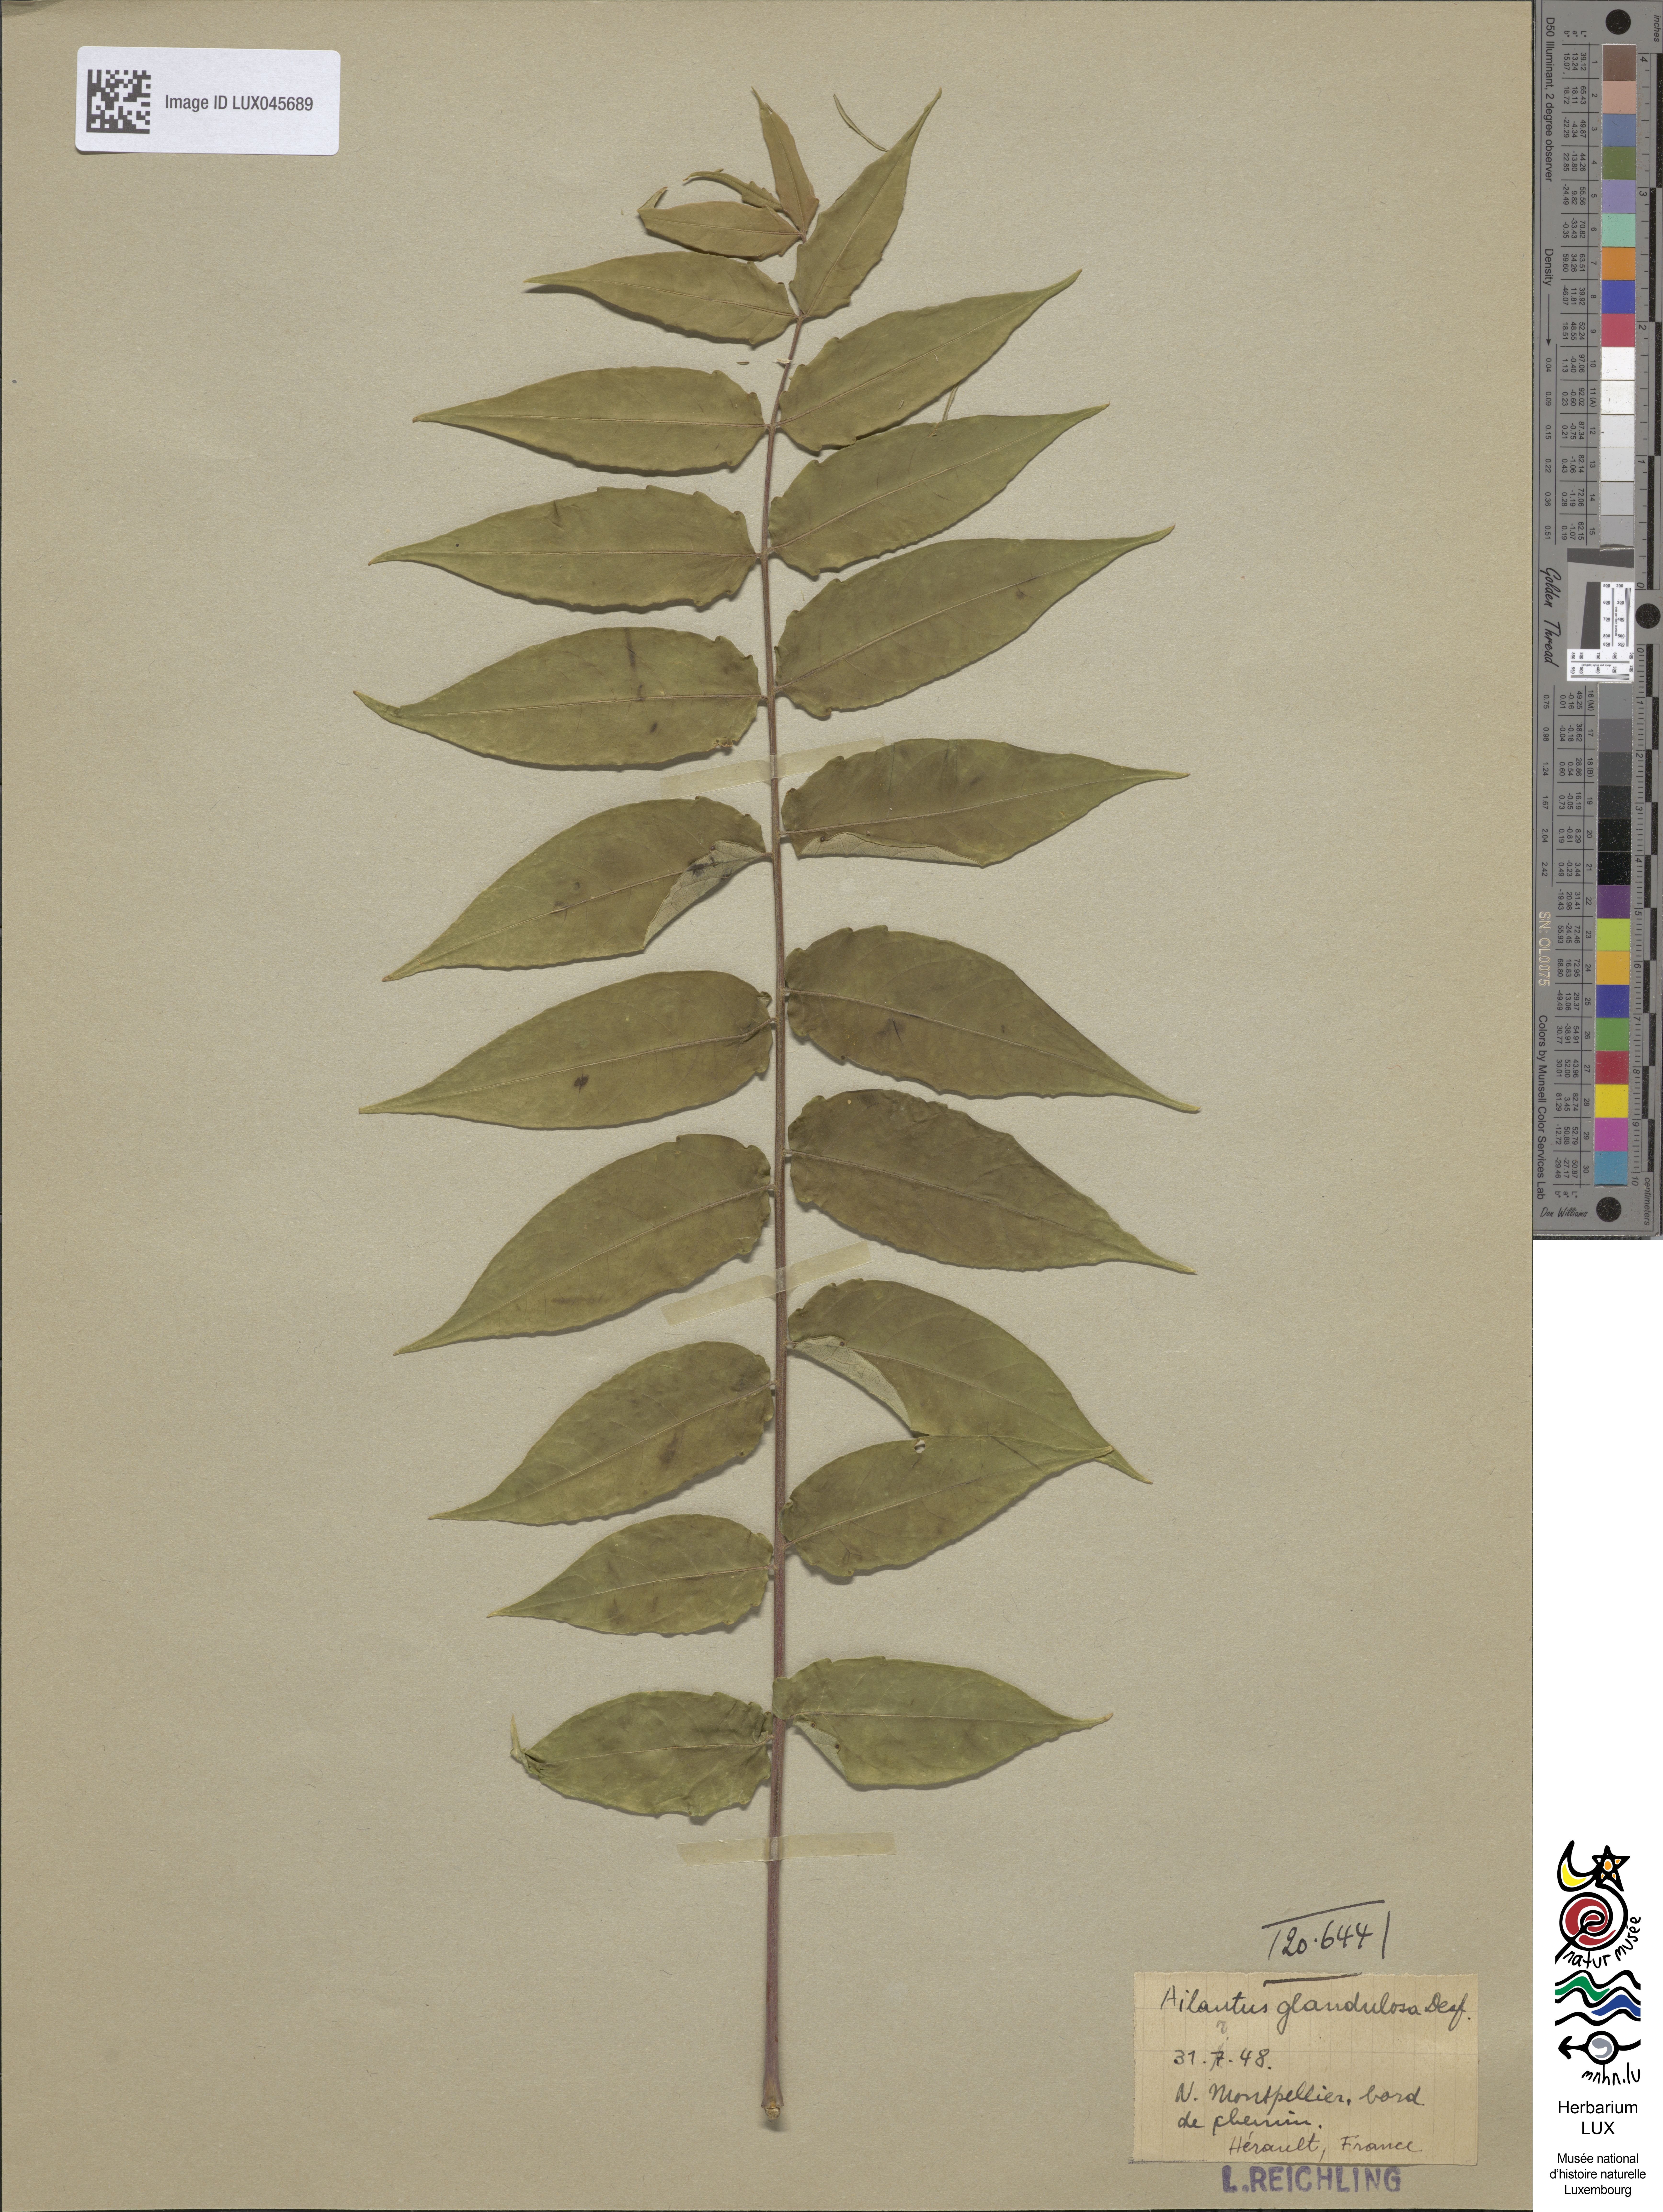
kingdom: Plantae
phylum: Tracheophyta
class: Magnoliopsida
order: Sapindales
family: Simaroubaceae
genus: Ailanthus
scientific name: Ailanthus altissima
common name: Tree-of-heaven
